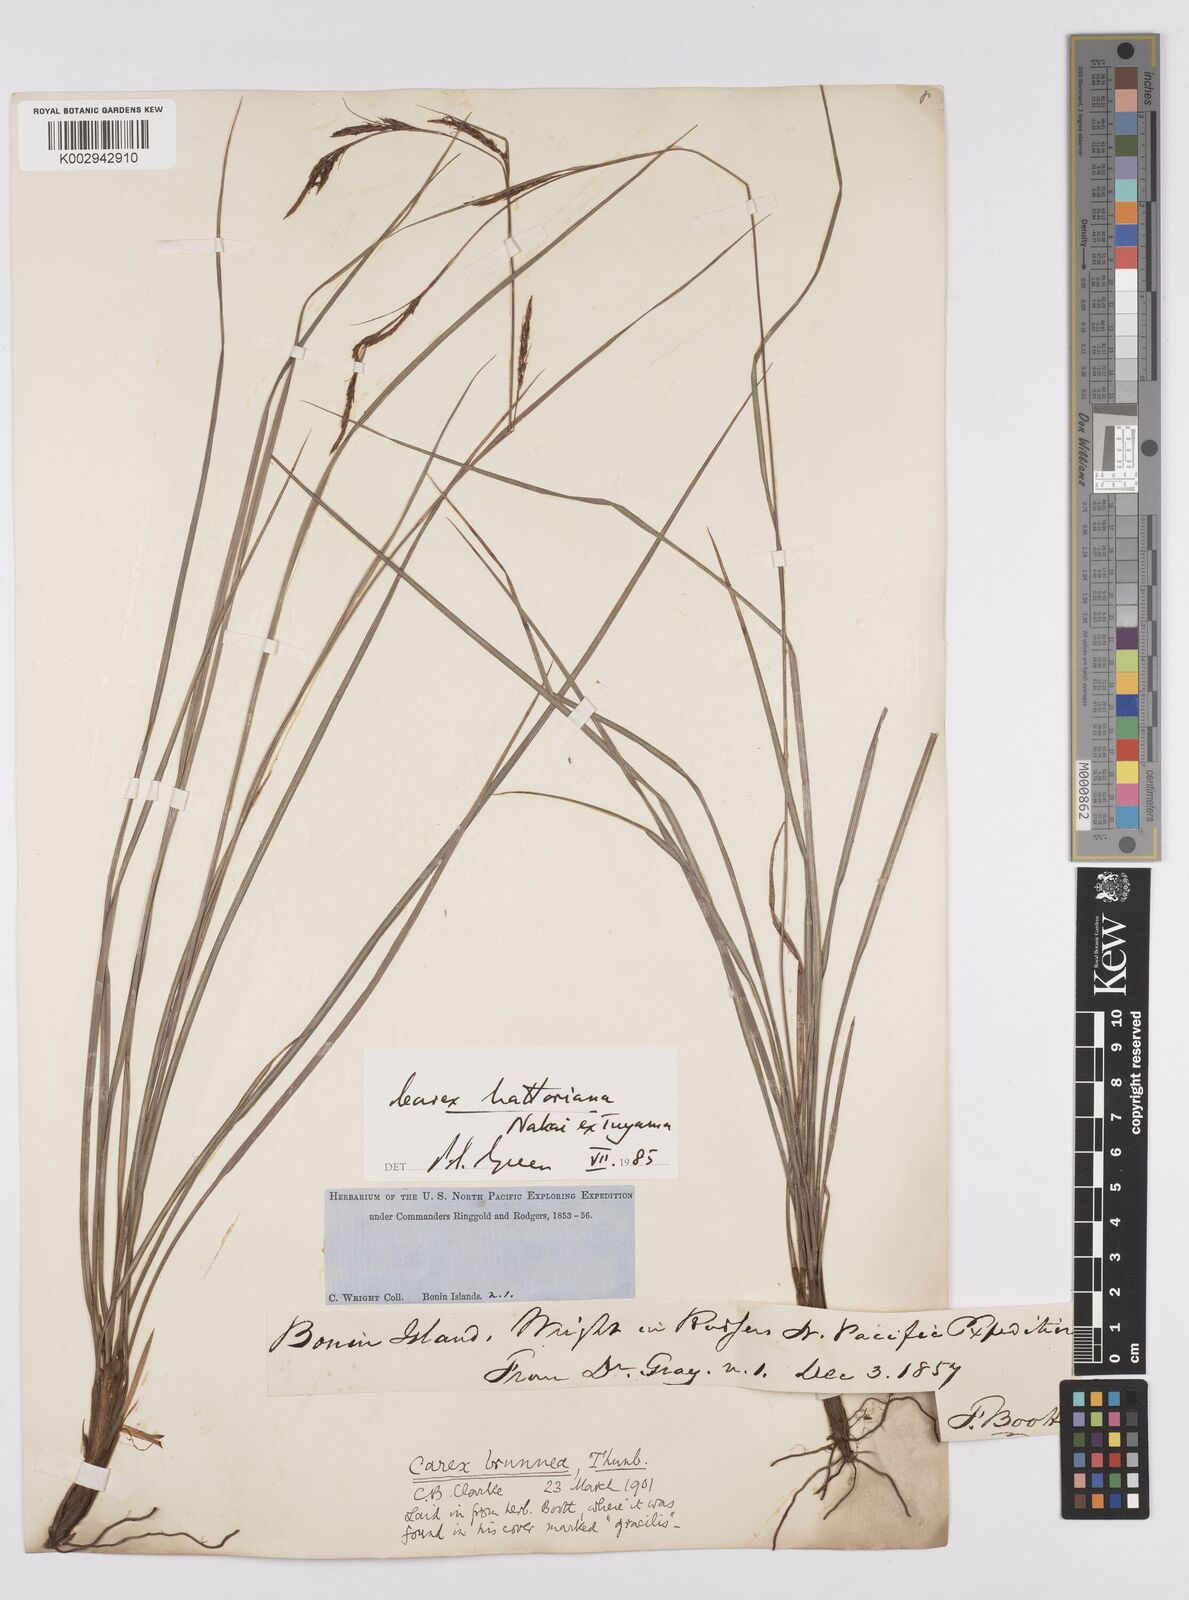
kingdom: Plantae
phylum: Tracheophyta
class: Liliopsida
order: Poales
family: Cyperaceae
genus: Carex
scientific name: Carex hattoriana
